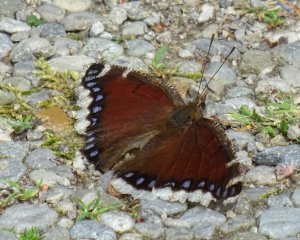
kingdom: Animalia
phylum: Arthropoda
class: Insecta
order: Lepidoptera
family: Nymphalidae
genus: Nymphalis
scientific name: Nymphalis antiopa
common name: Mourning Cloak
